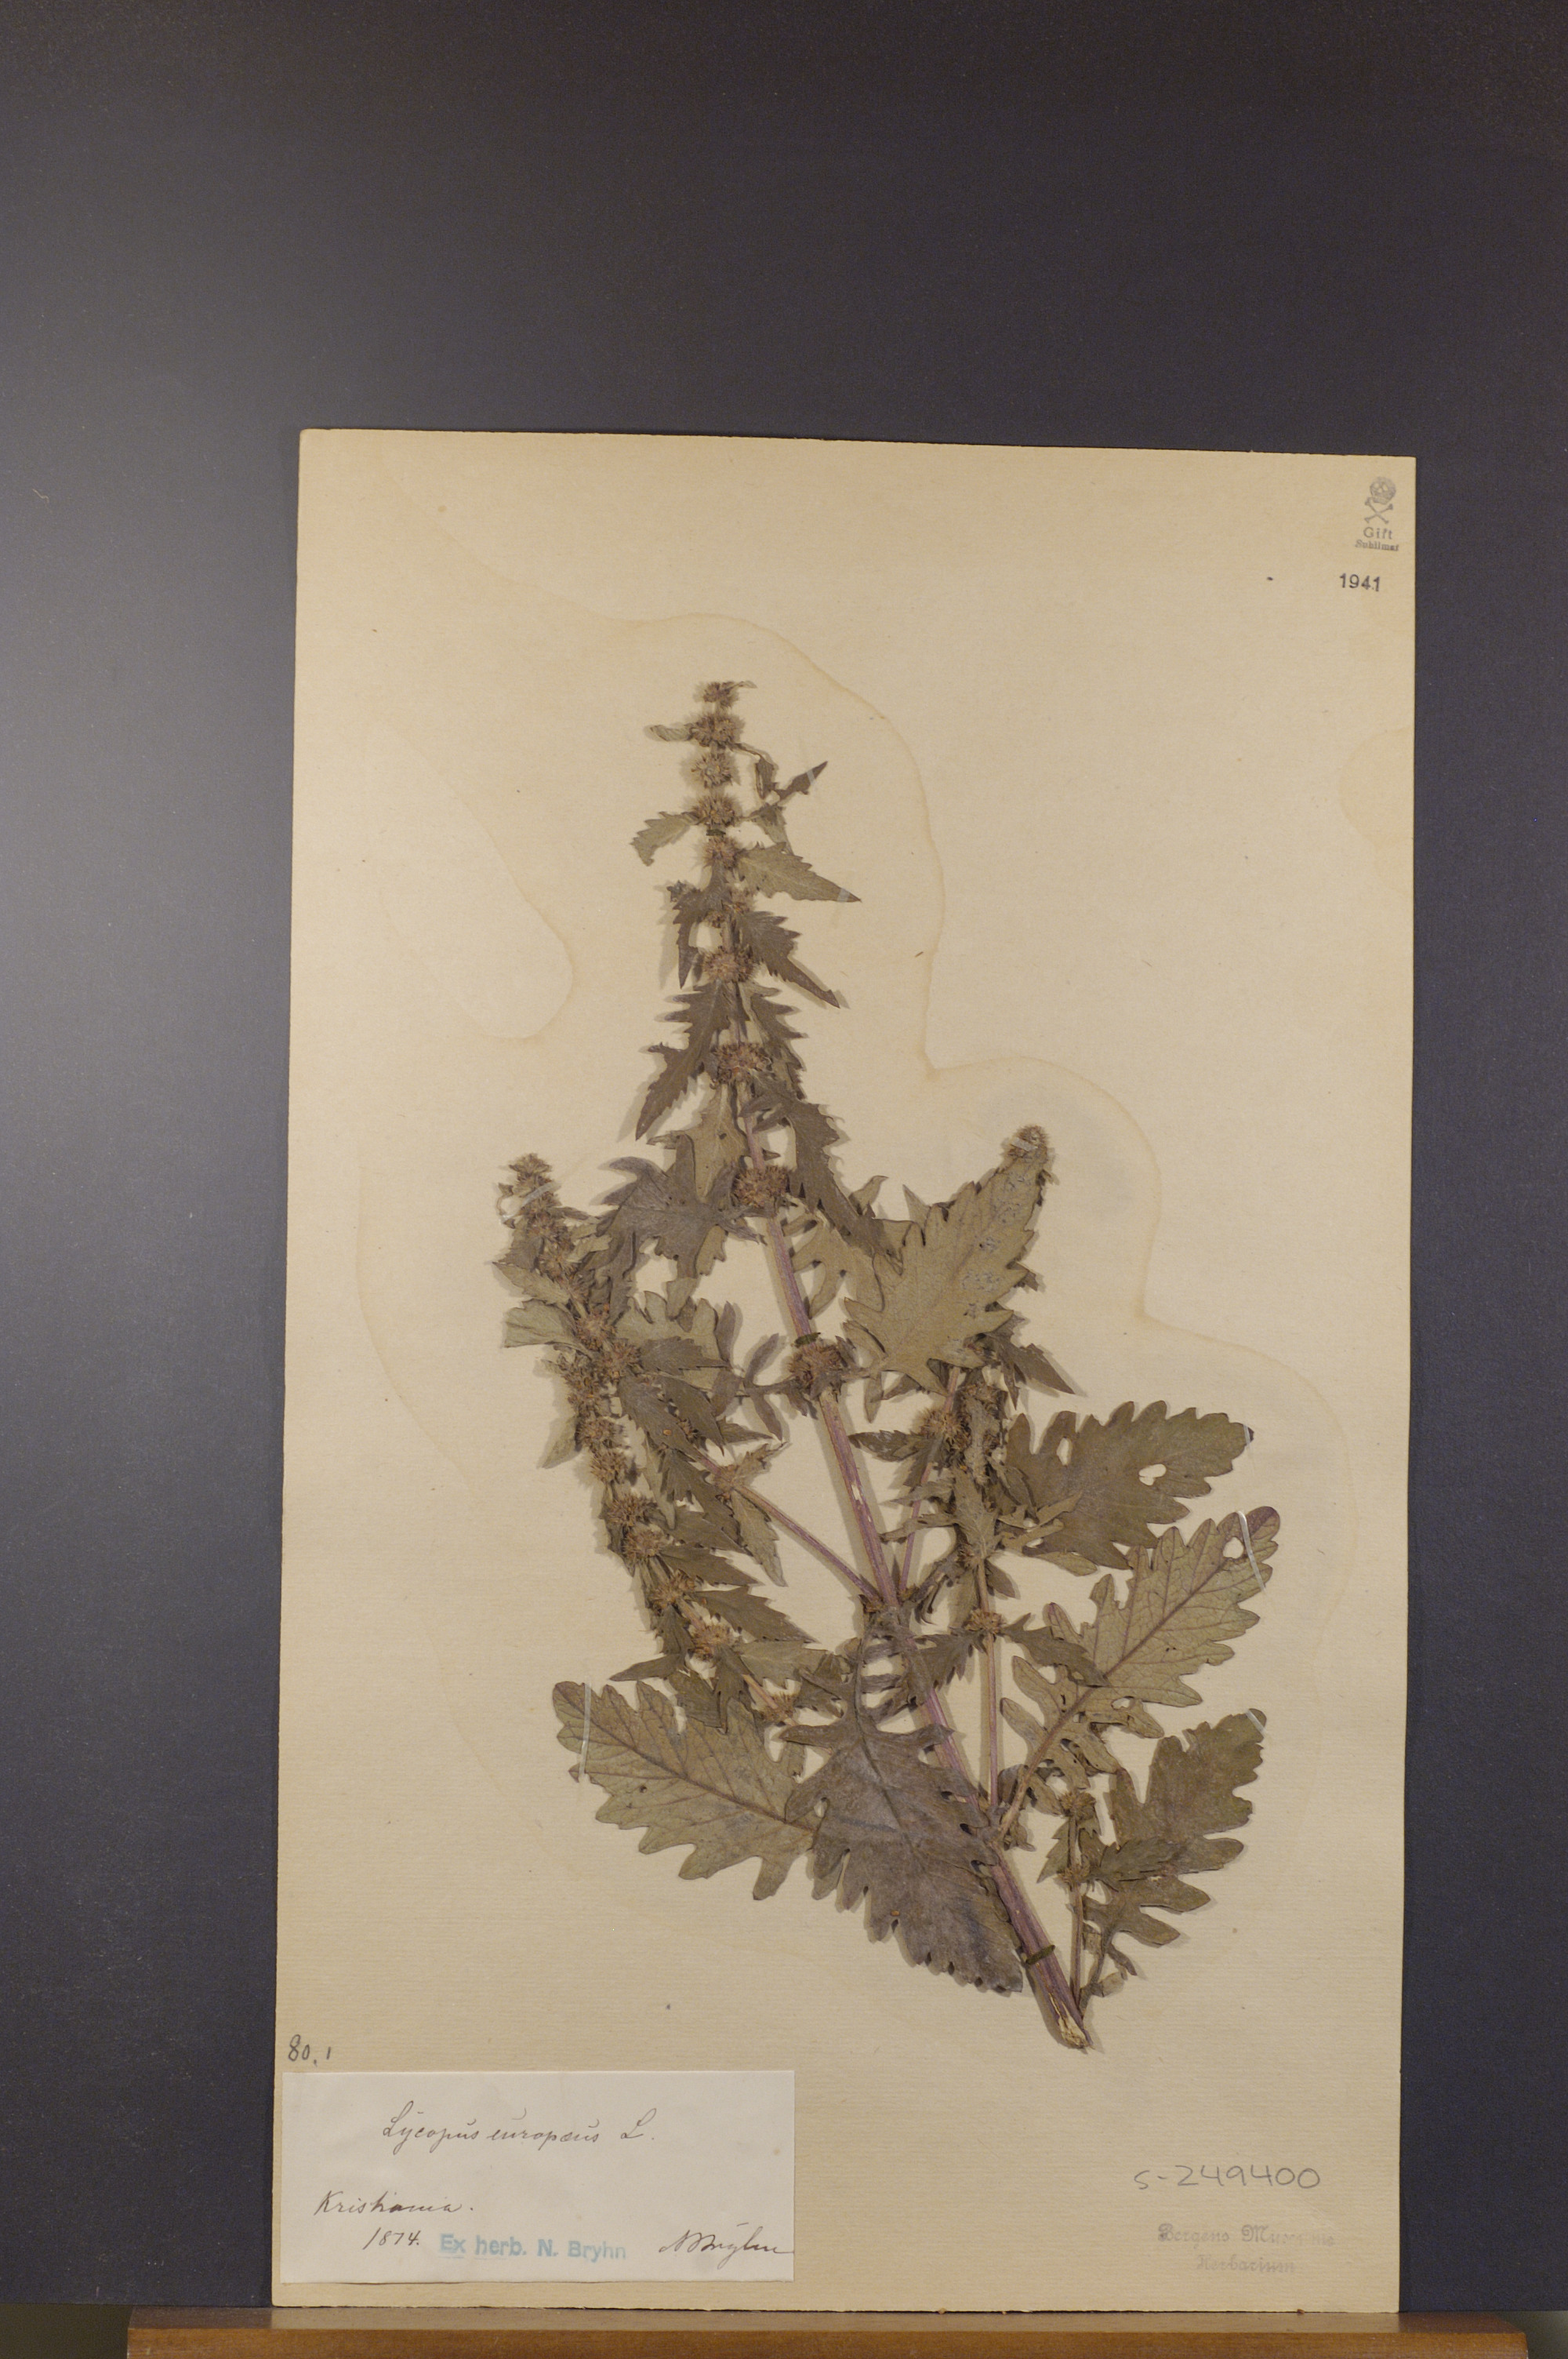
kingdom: Plantae
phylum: Tracheophyta
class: Magnoliopsida
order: Lamiales
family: Lamiaceae
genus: Lycopus
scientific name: Lycopus europaeus
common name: European bugleweed
